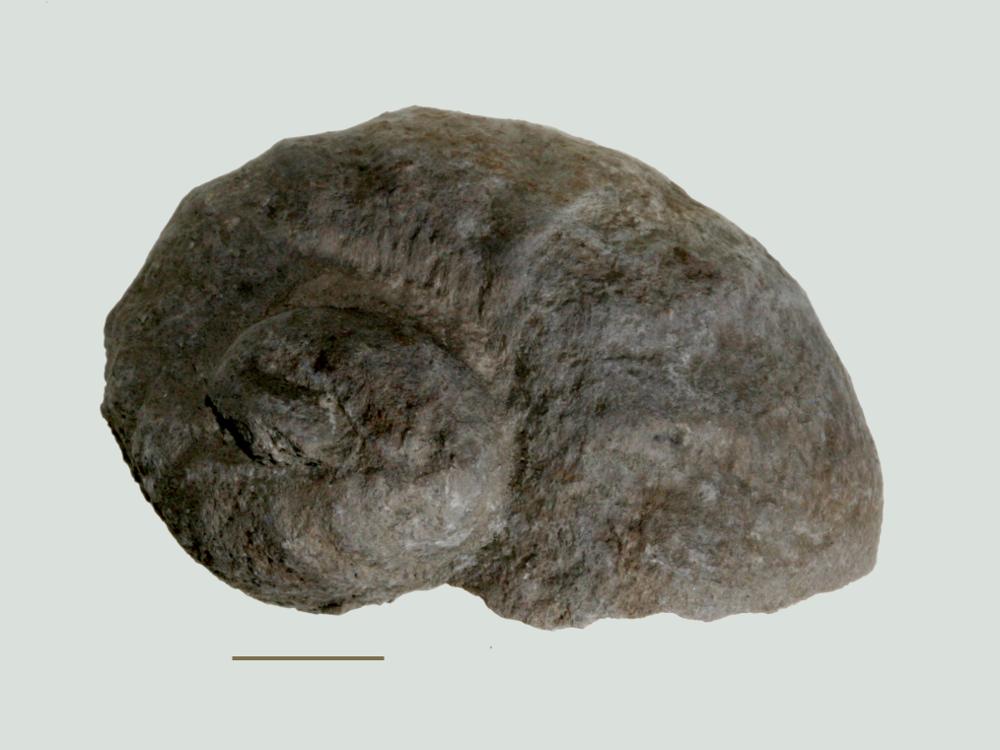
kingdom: Animalia
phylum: Mollusca
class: Gastropoda
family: Holopeidae
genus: Holopea
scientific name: Holopea ampullacea
